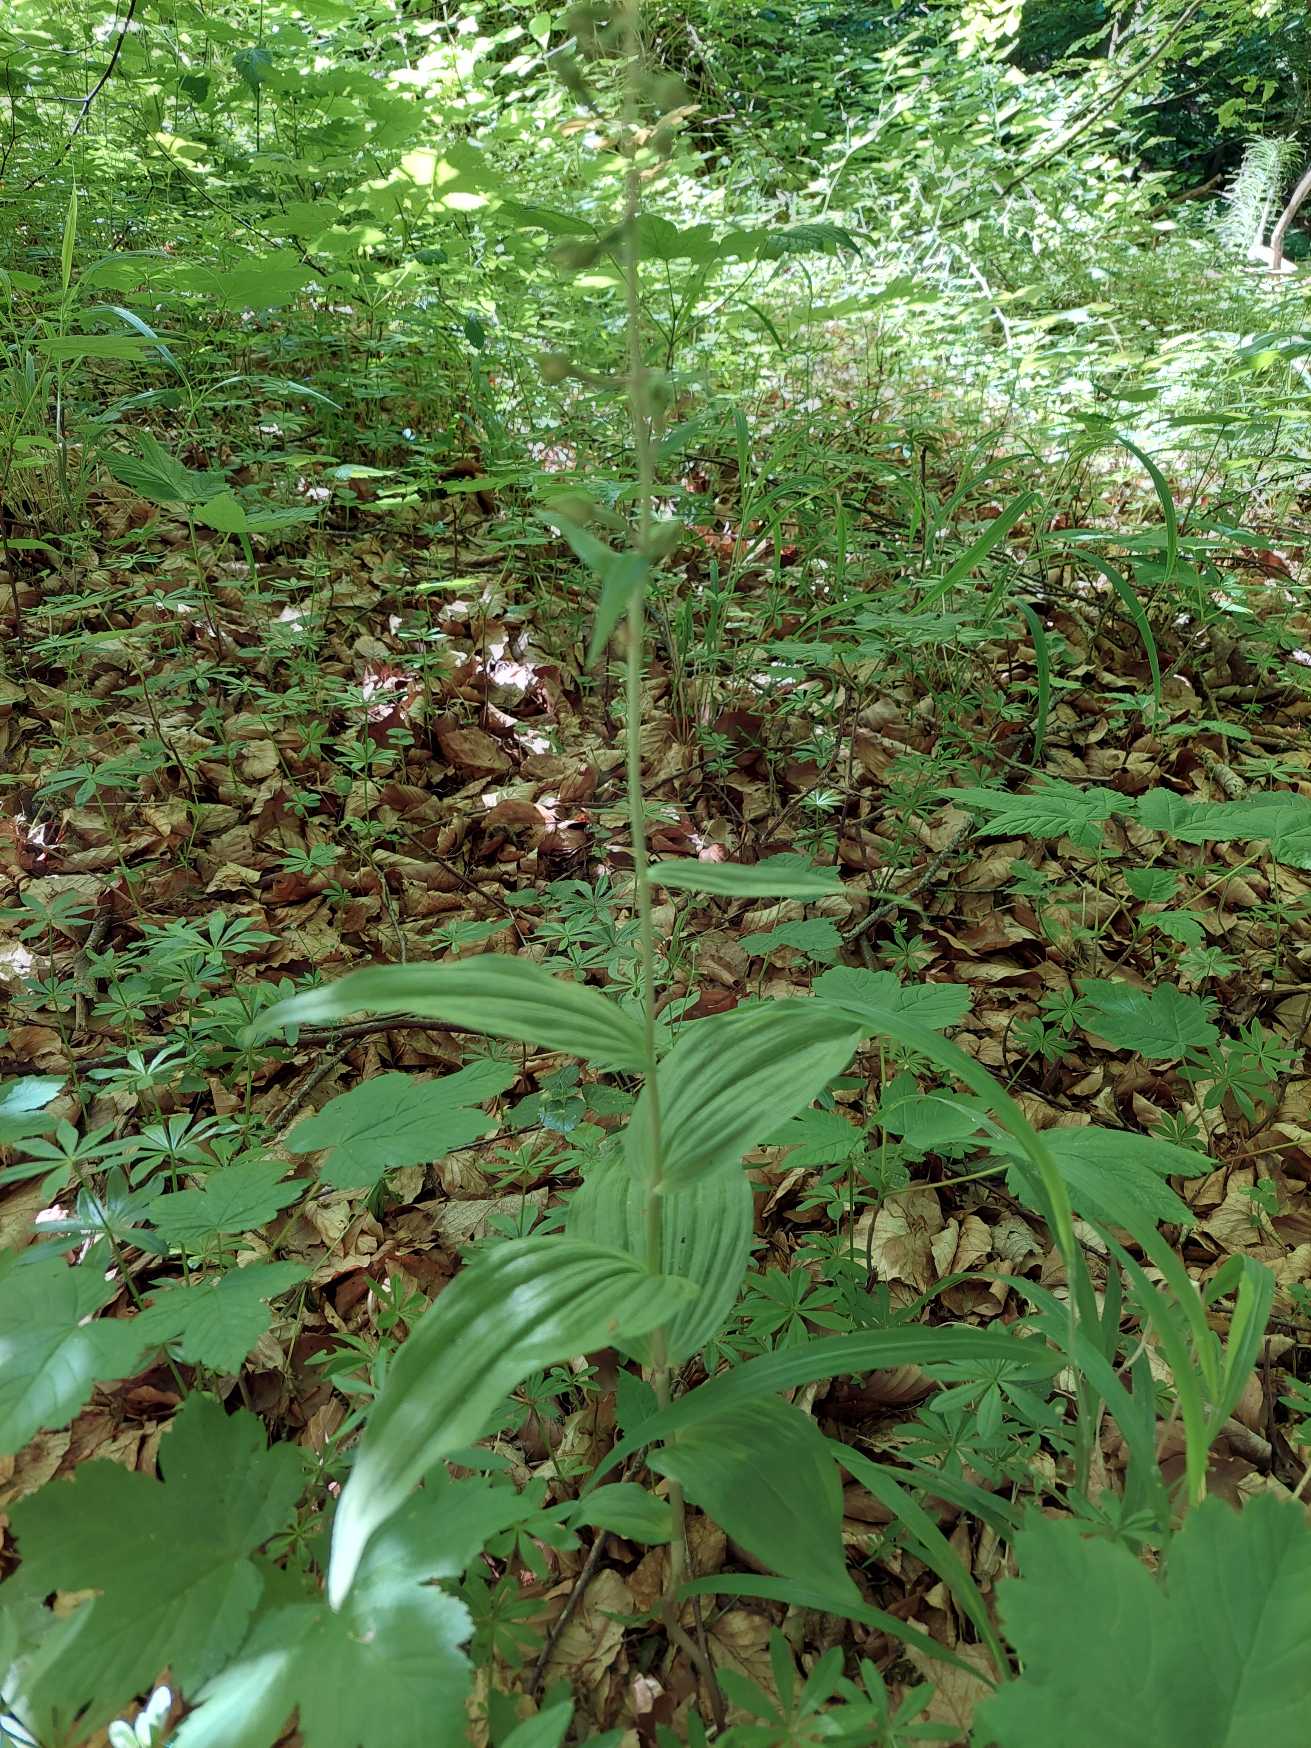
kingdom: Plantae
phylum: Tracheophyta
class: Liliopsida
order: Asparagales
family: Orchidaceae
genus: Epipactis
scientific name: Epipactis helleborine
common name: Skov-hullæbe
